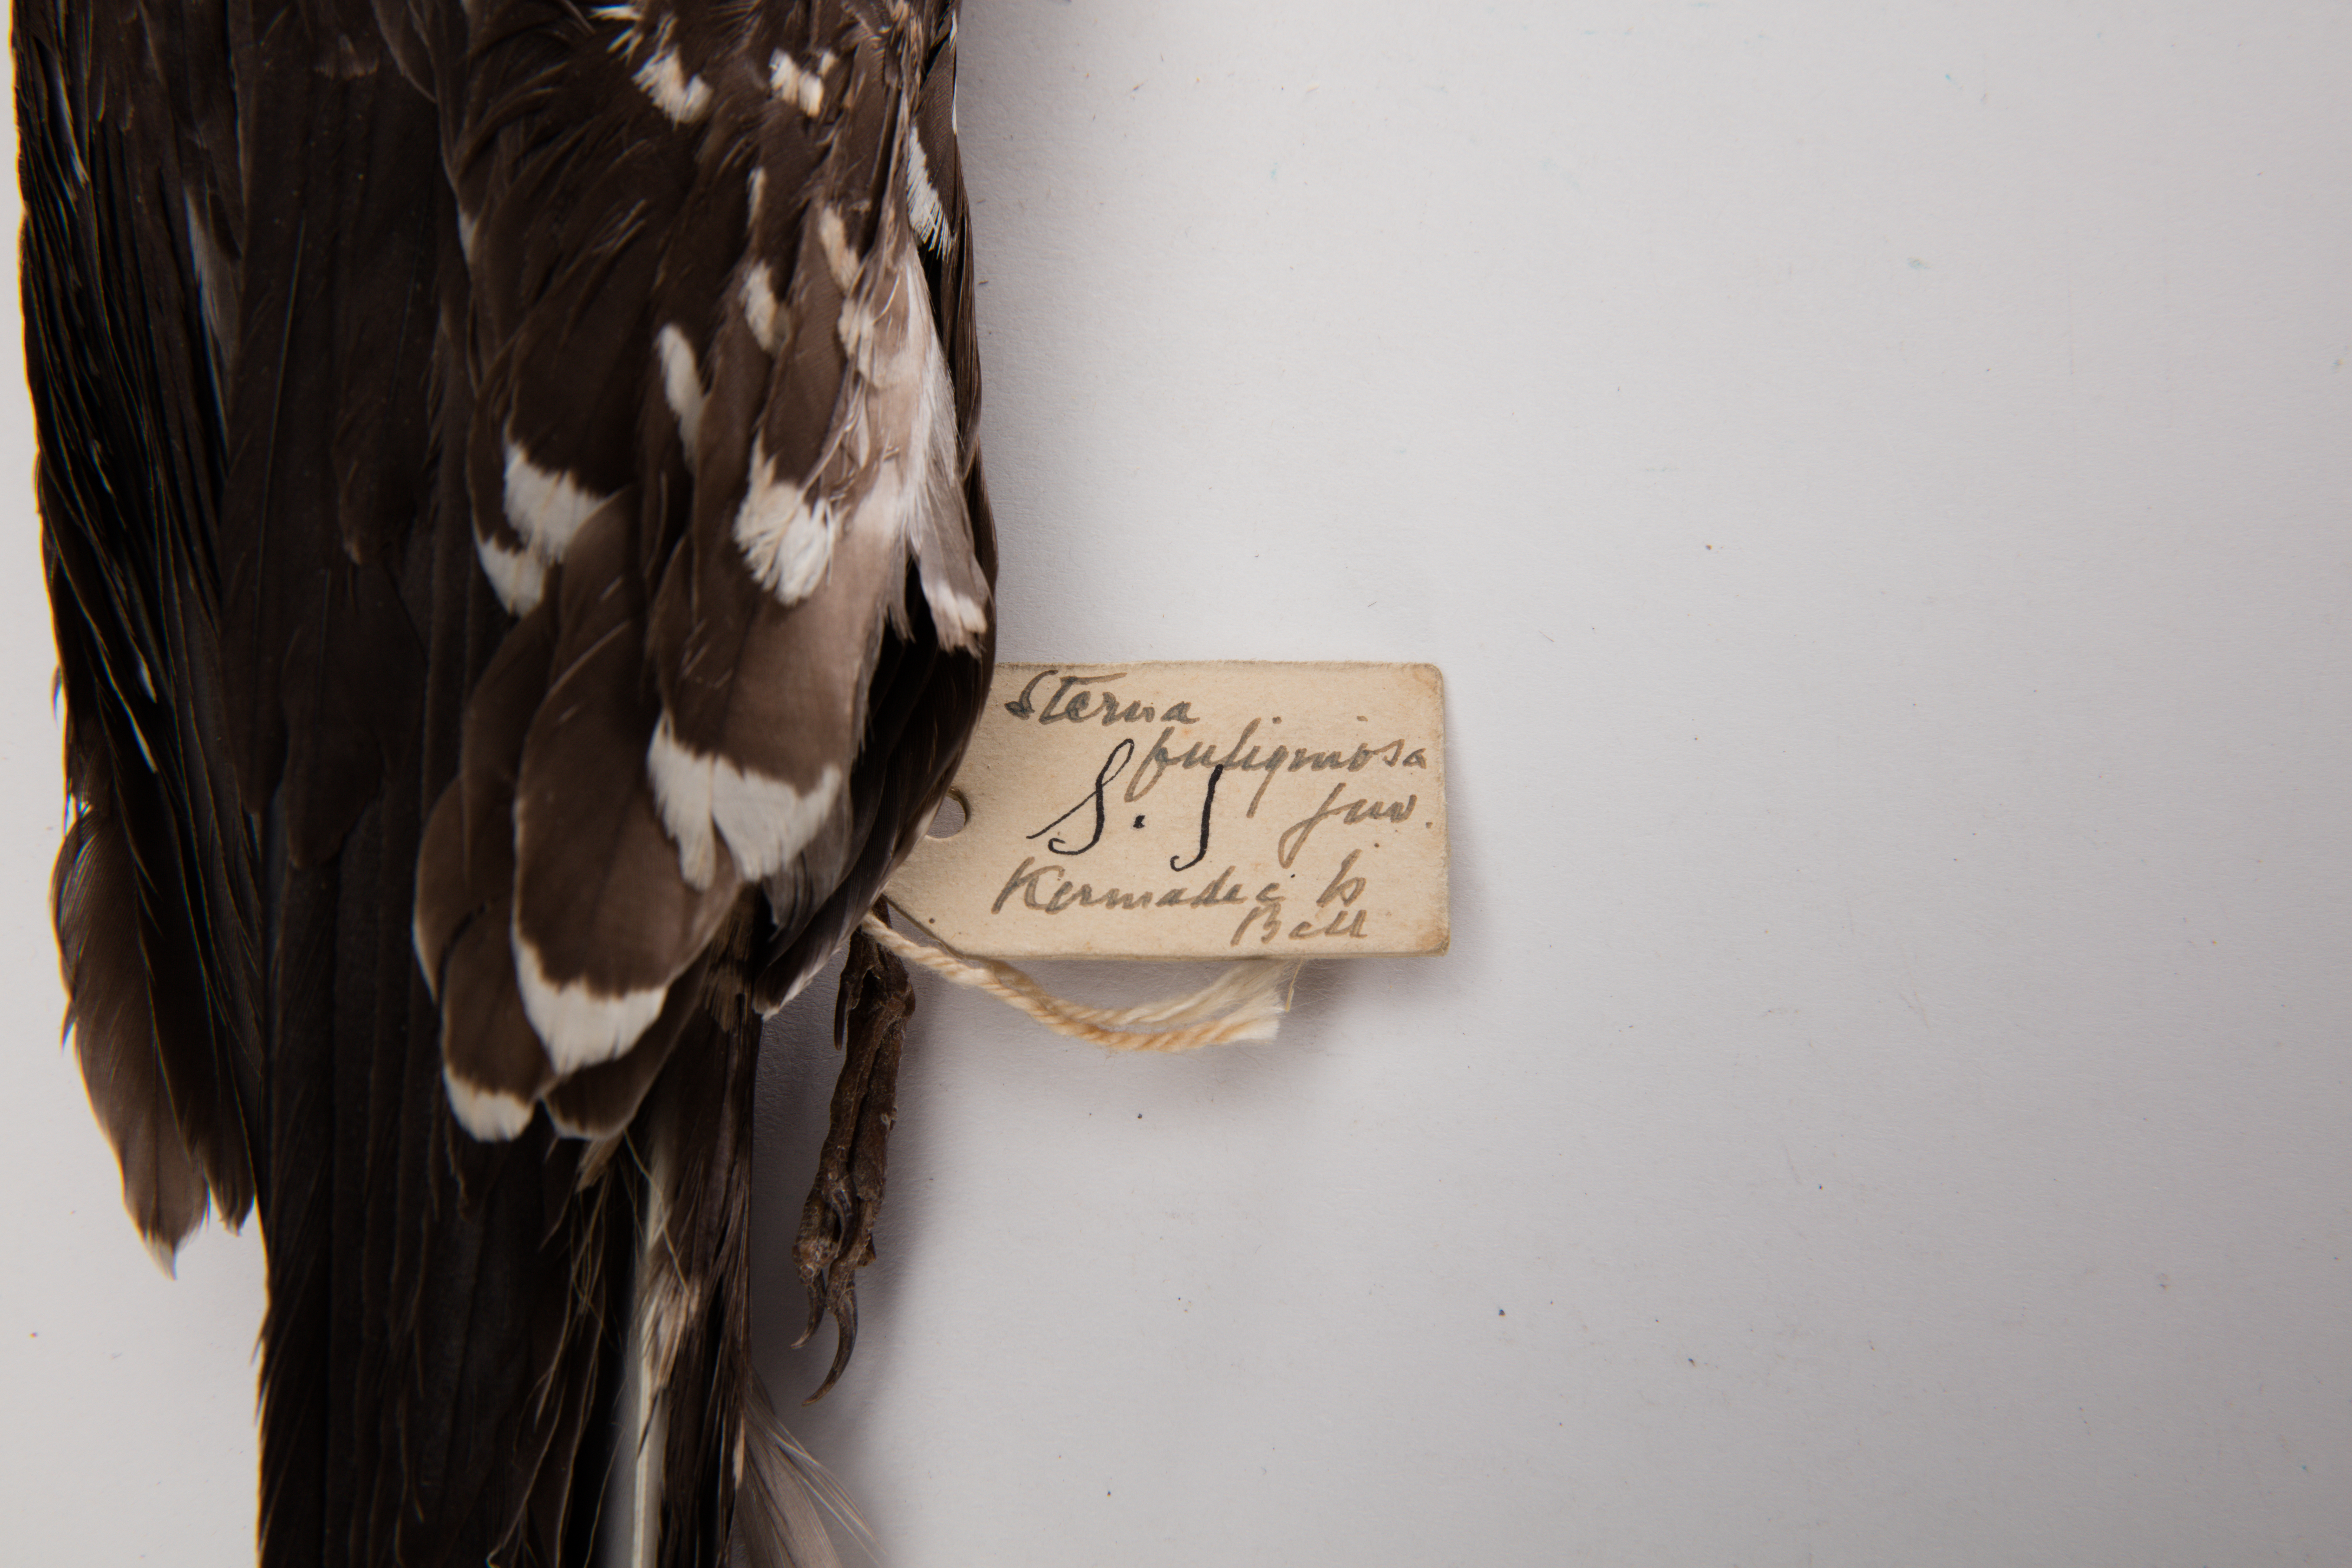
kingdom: Animalia
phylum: Chordata
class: Aves
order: Charadriiformes
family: Laridae
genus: Onychoprion
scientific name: Onychoprion fuscatus
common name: Sooty tern
